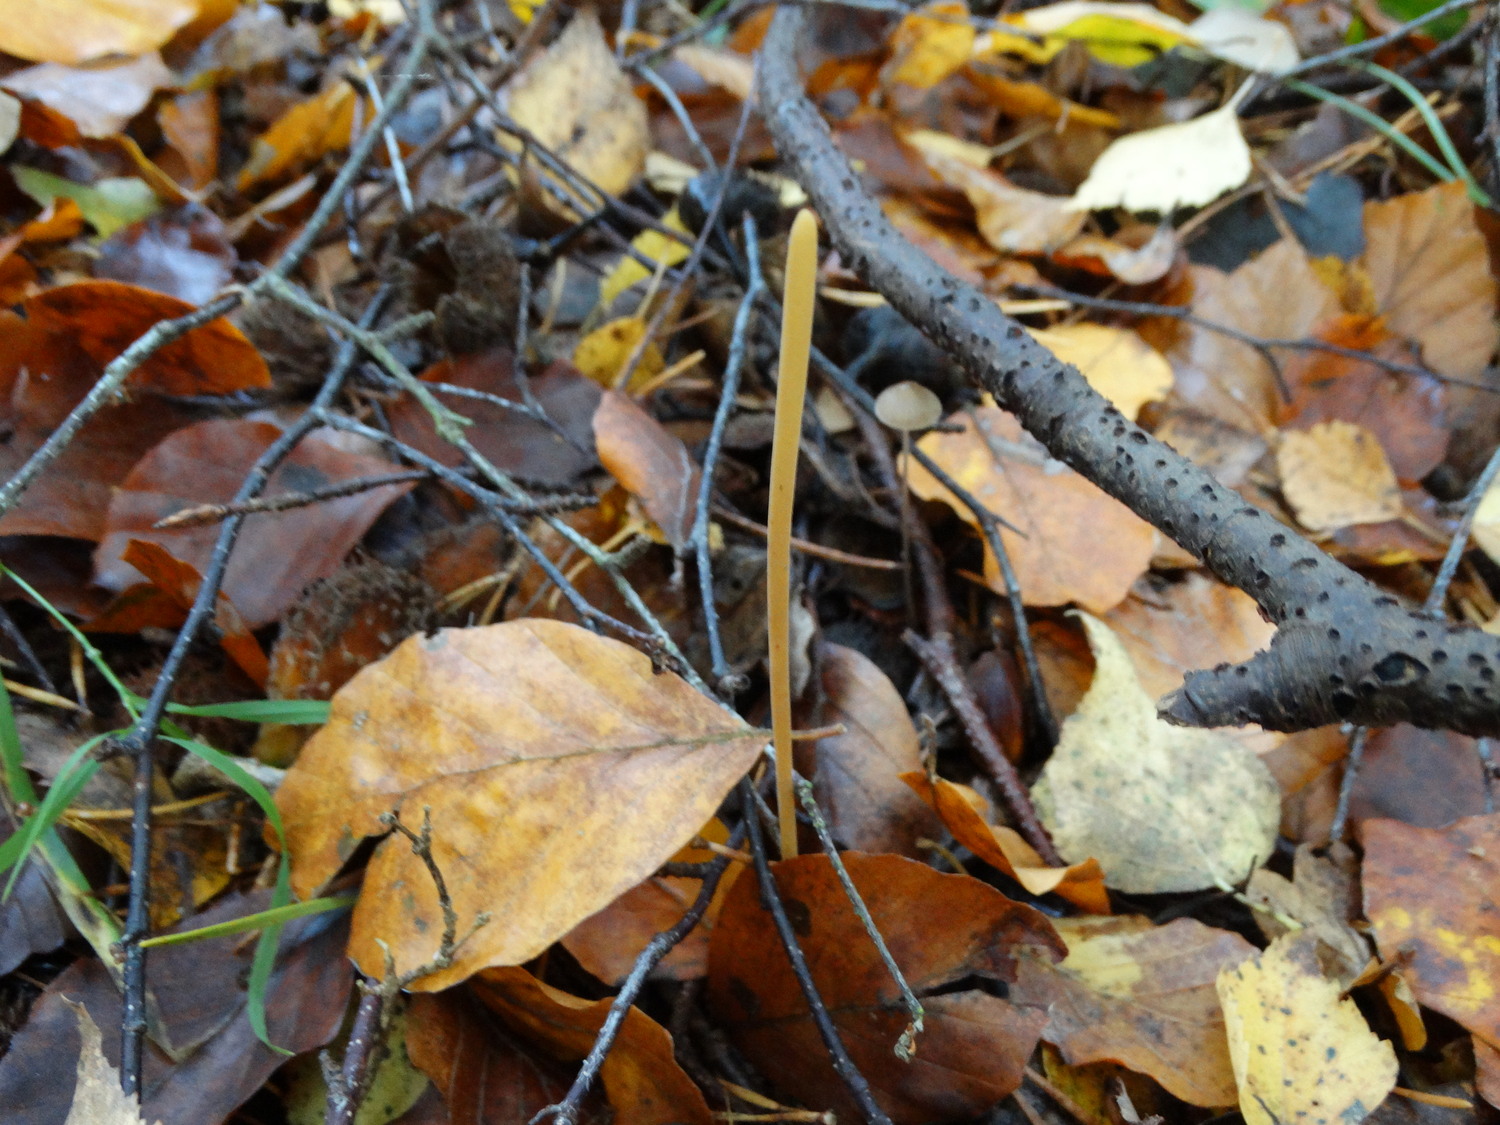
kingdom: Fungi
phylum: Basidiomycota
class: Agaricomycetes
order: Agaricales
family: Typhulaceae
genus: Typhula
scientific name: Typhula fistulosa
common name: pibet rørkølle
